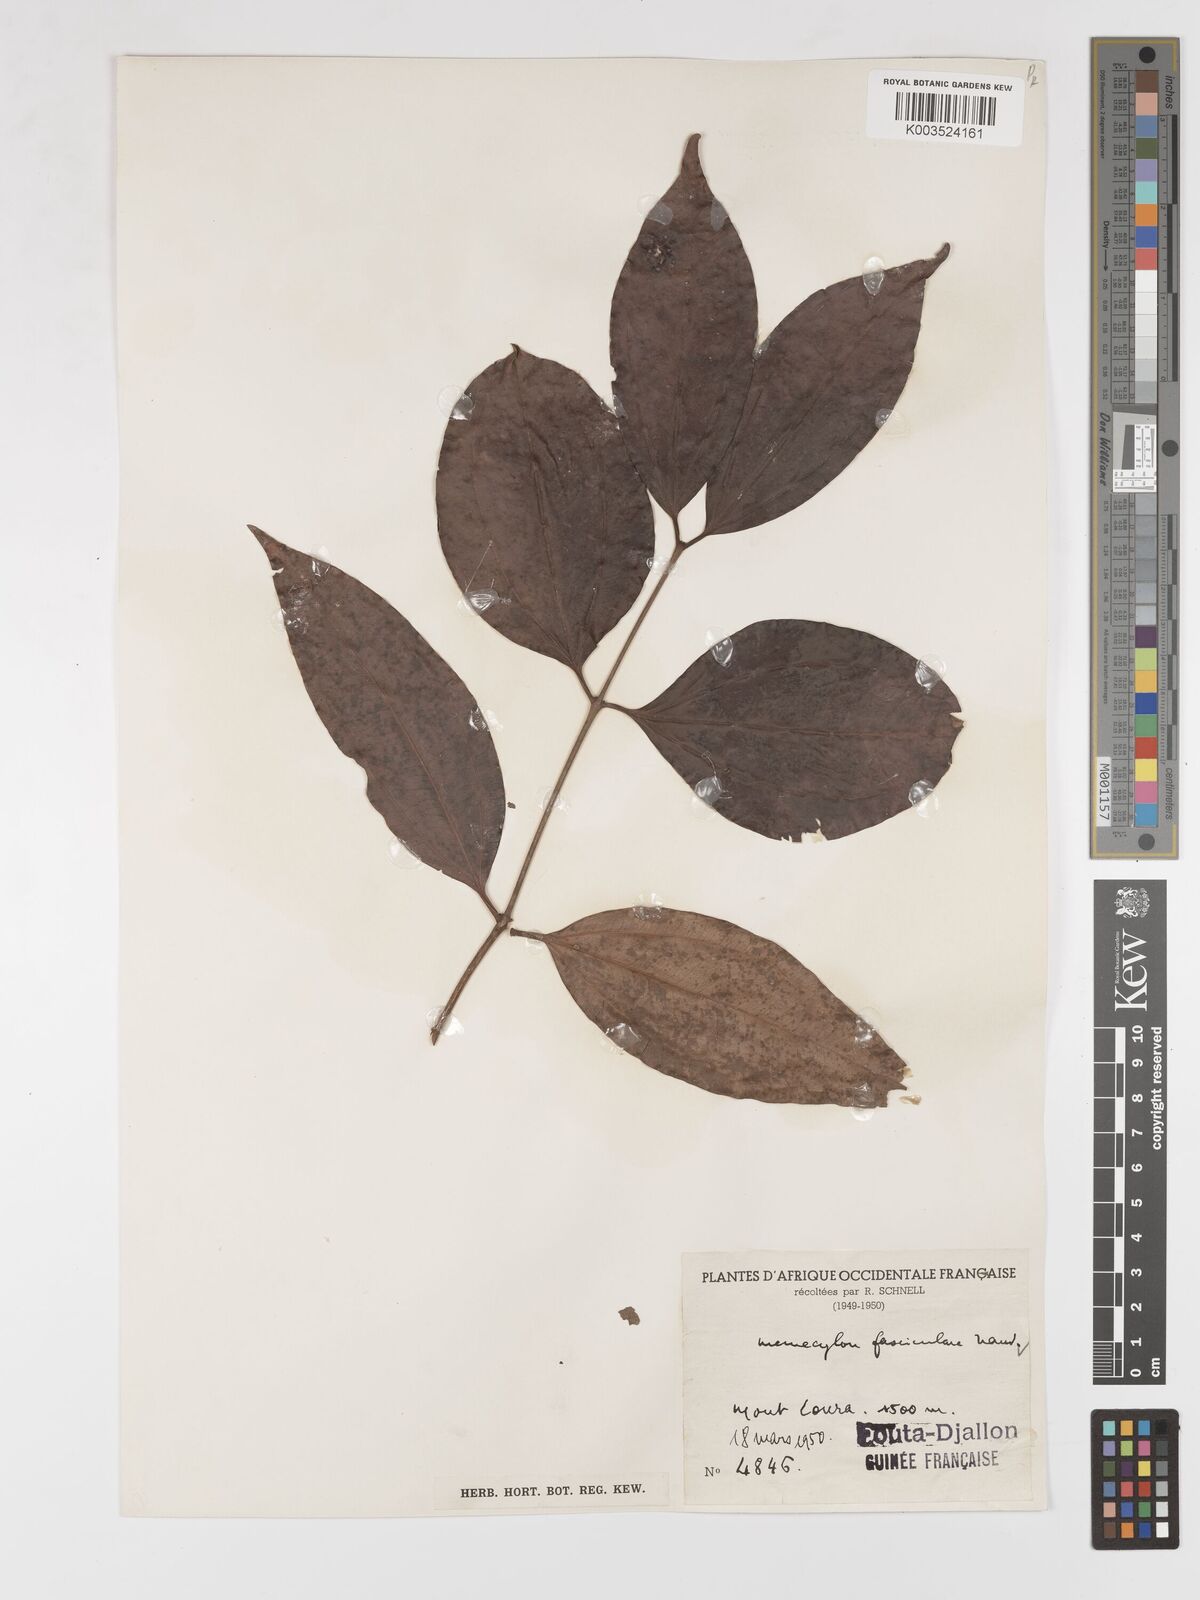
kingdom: Plantae
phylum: Tracheophyta
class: Magnoliopsida
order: Myrtales
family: Melastomataceae
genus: Warneckea
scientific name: Warneckea fascicularis
